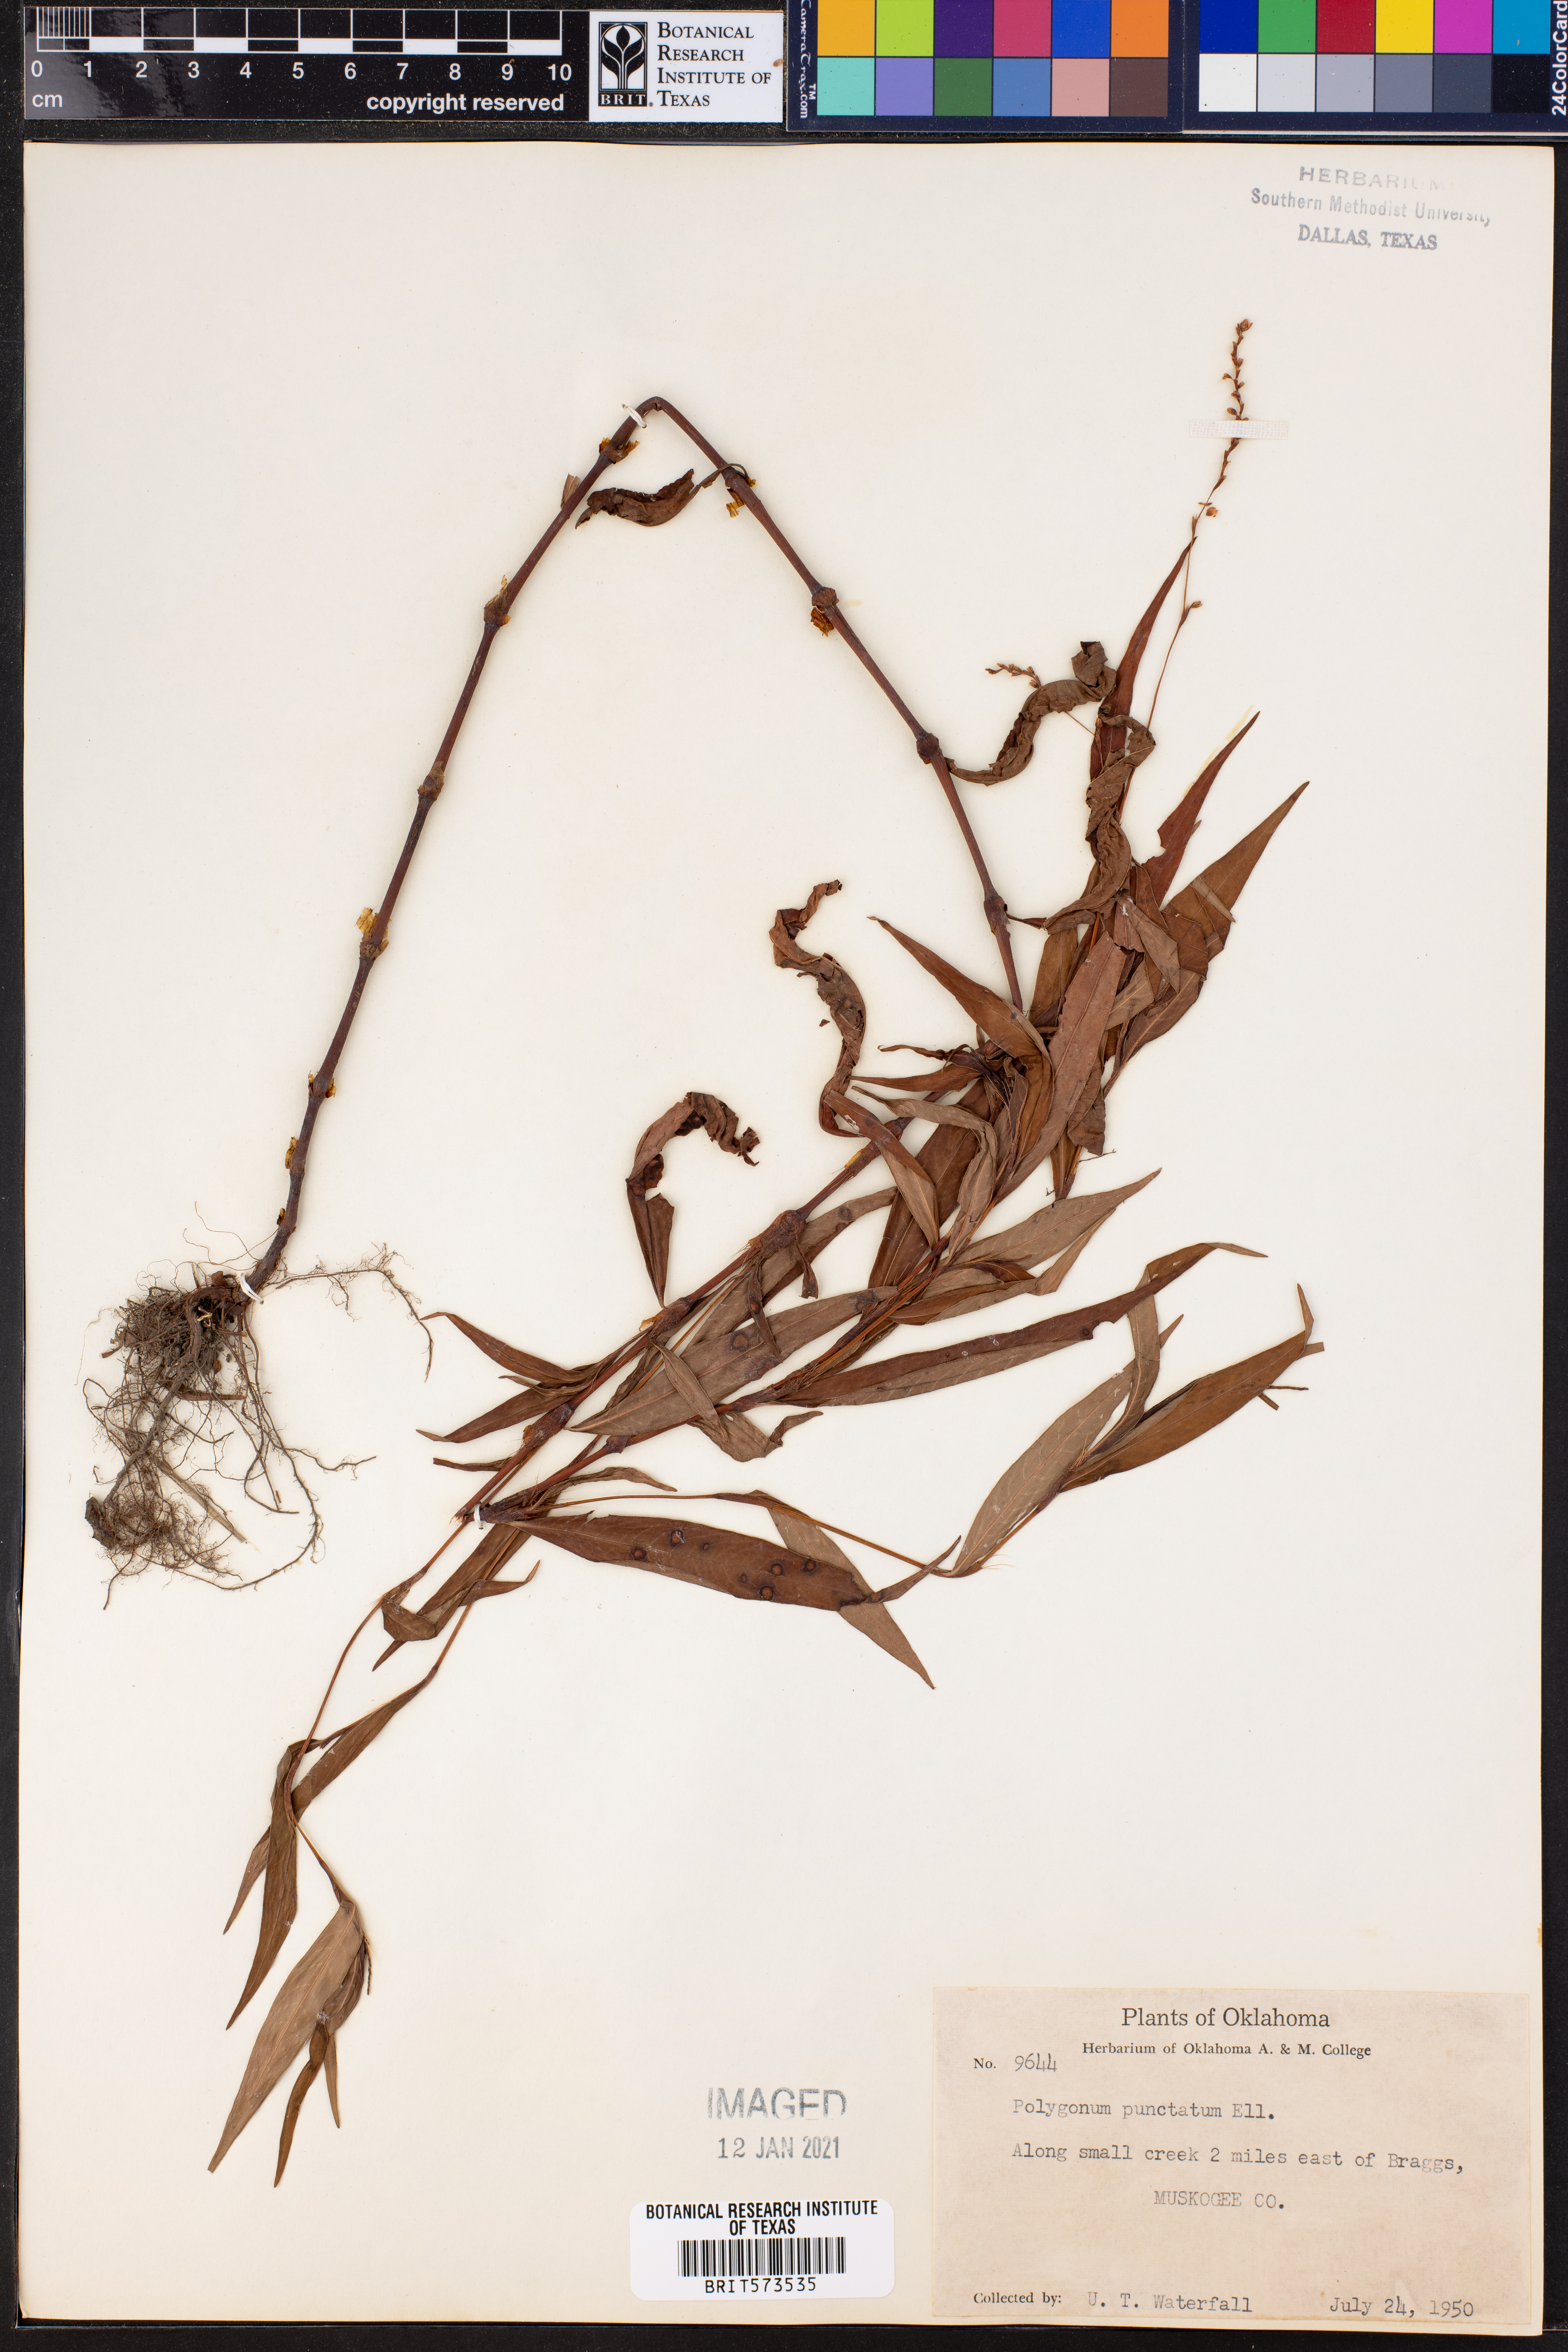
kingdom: Plantae
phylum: Tracheophyta
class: Magnoliopsida
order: Caryophyllales
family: Polygonaceae
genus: Persicaria
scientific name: Persicaria punctata
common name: Dotted smartweed
